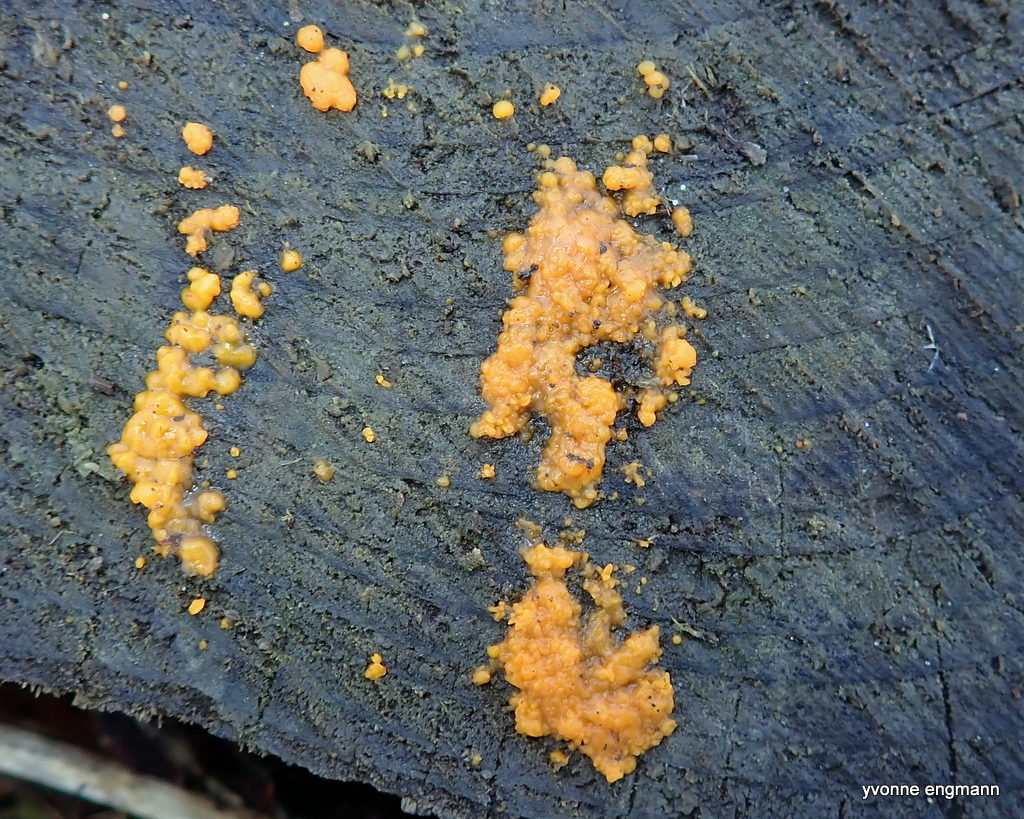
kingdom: Fungi
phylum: Basidiomycota
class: Dacrymycetes
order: Dacrymycetales
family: Dacrymycetaceae
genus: Dacrymyces
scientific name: Dacrymyces stillatus
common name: almindelig tåresvamp
